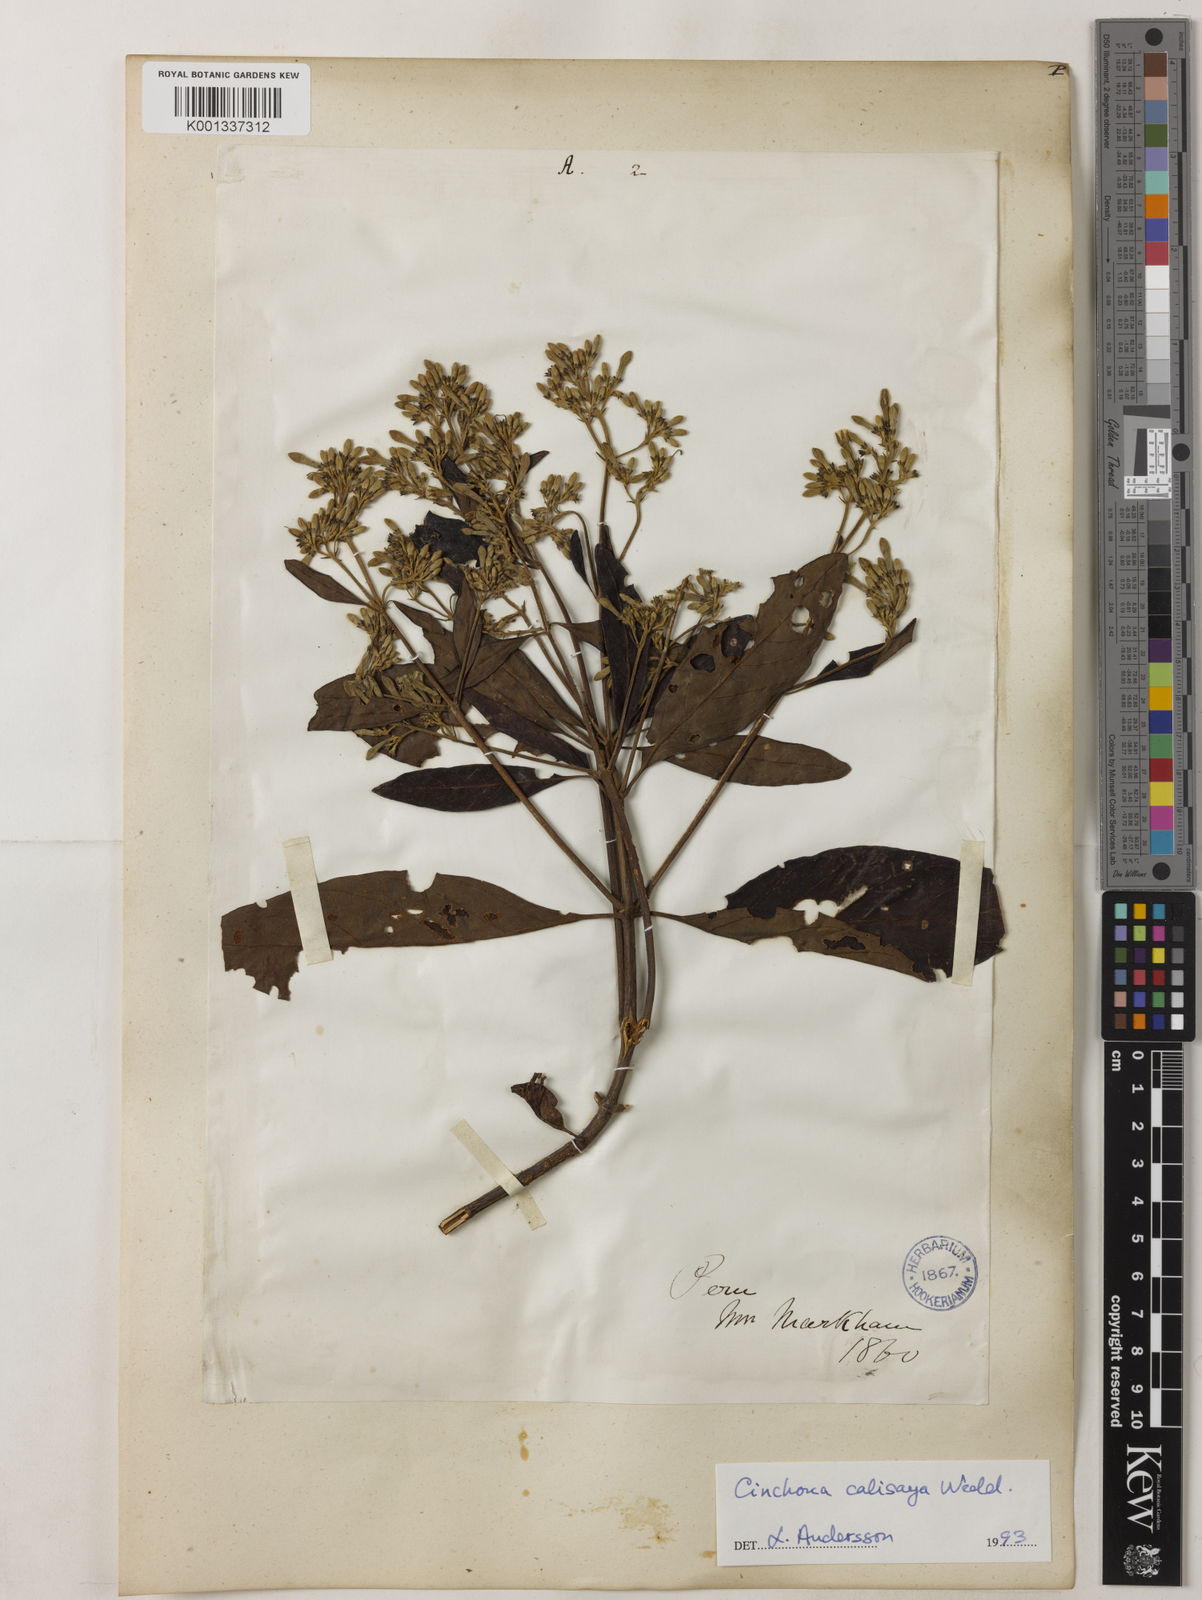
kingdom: Plantae
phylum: Tracheophyta
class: Magnoliopsida
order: Gentianales
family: Rubiaceae
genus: Cinchona
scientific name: Cinchona calisaya
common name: Ledgerbark
